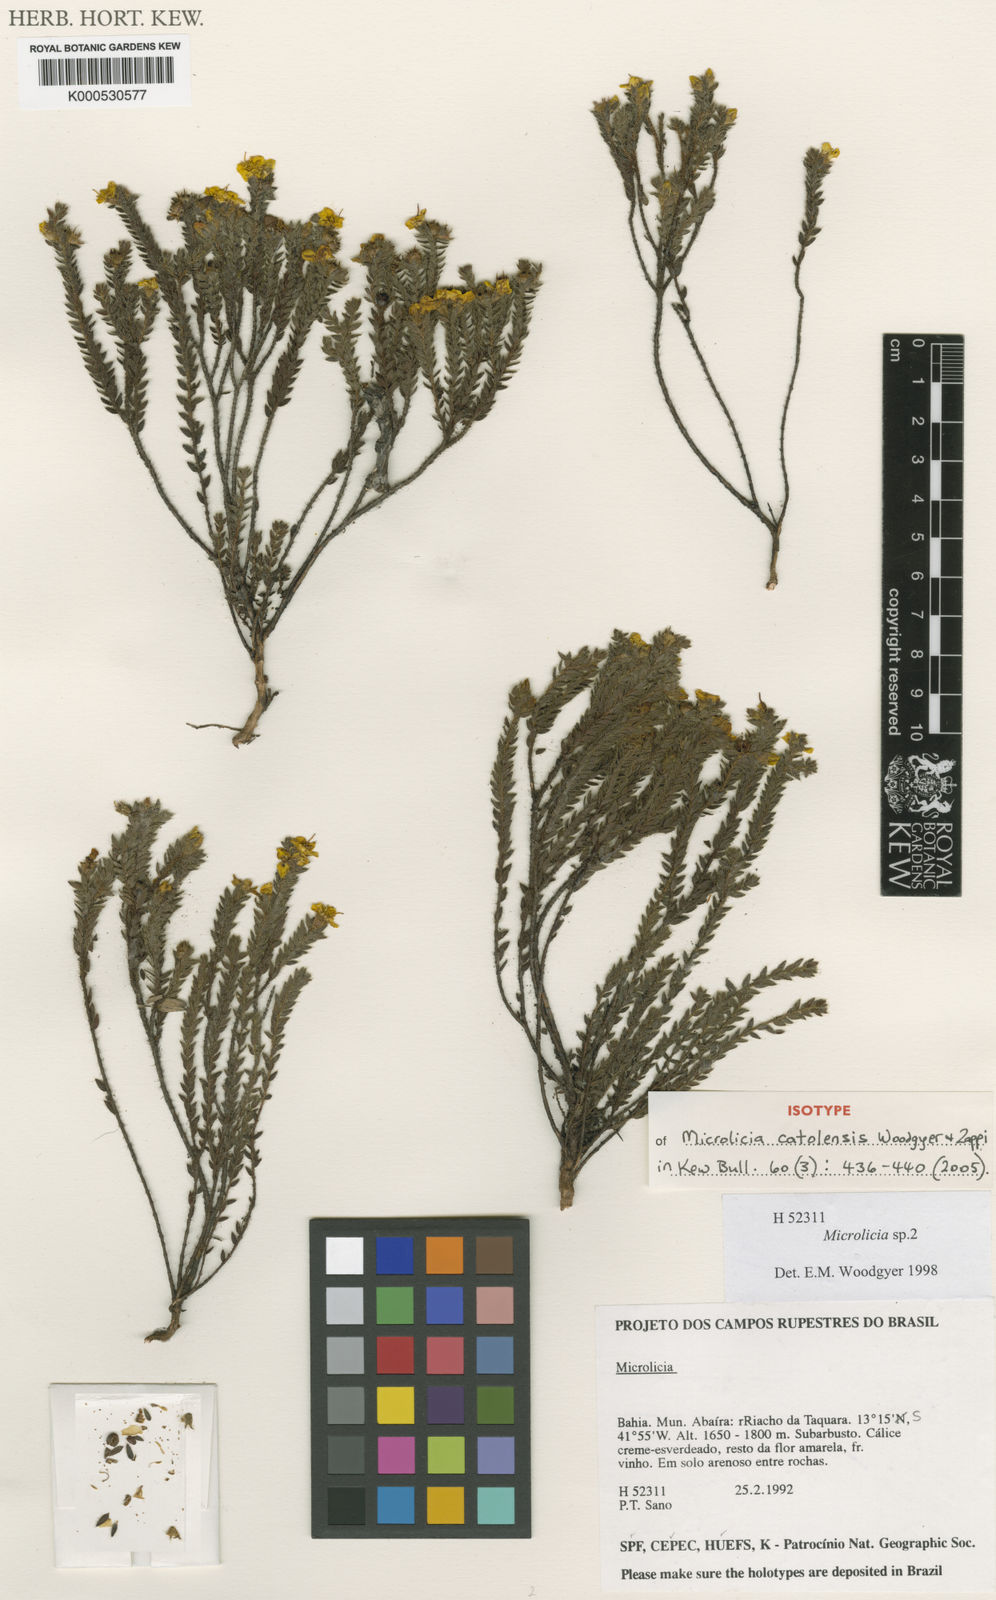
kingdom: Plantae
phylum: Tracheophyta
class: Magnoliopsida
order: Myrtales
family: Melastomataceae
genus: Microlicia
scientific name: Microlicia catolensis
